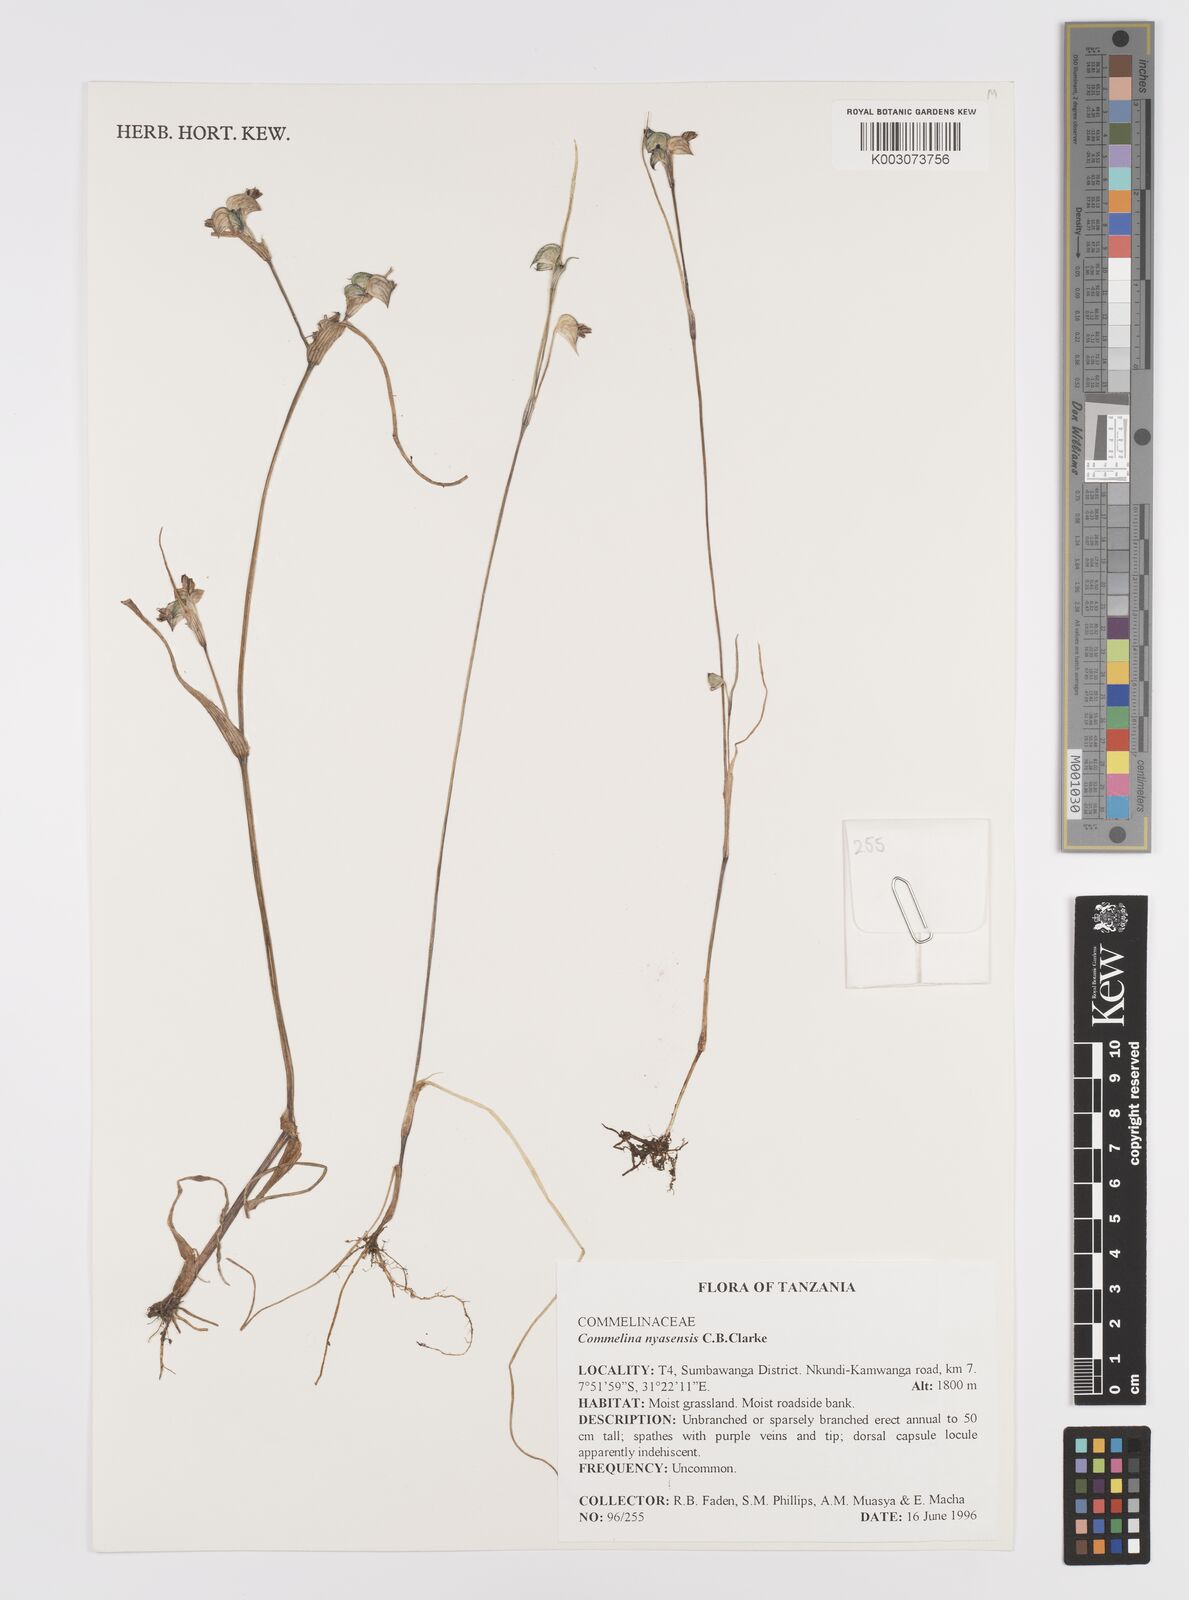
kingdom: Plantae
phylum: Tracheophyta
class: Liliopsida
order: Commelinales
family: Commelinaceae
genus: Commelina
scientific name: Commelina nyasensis
